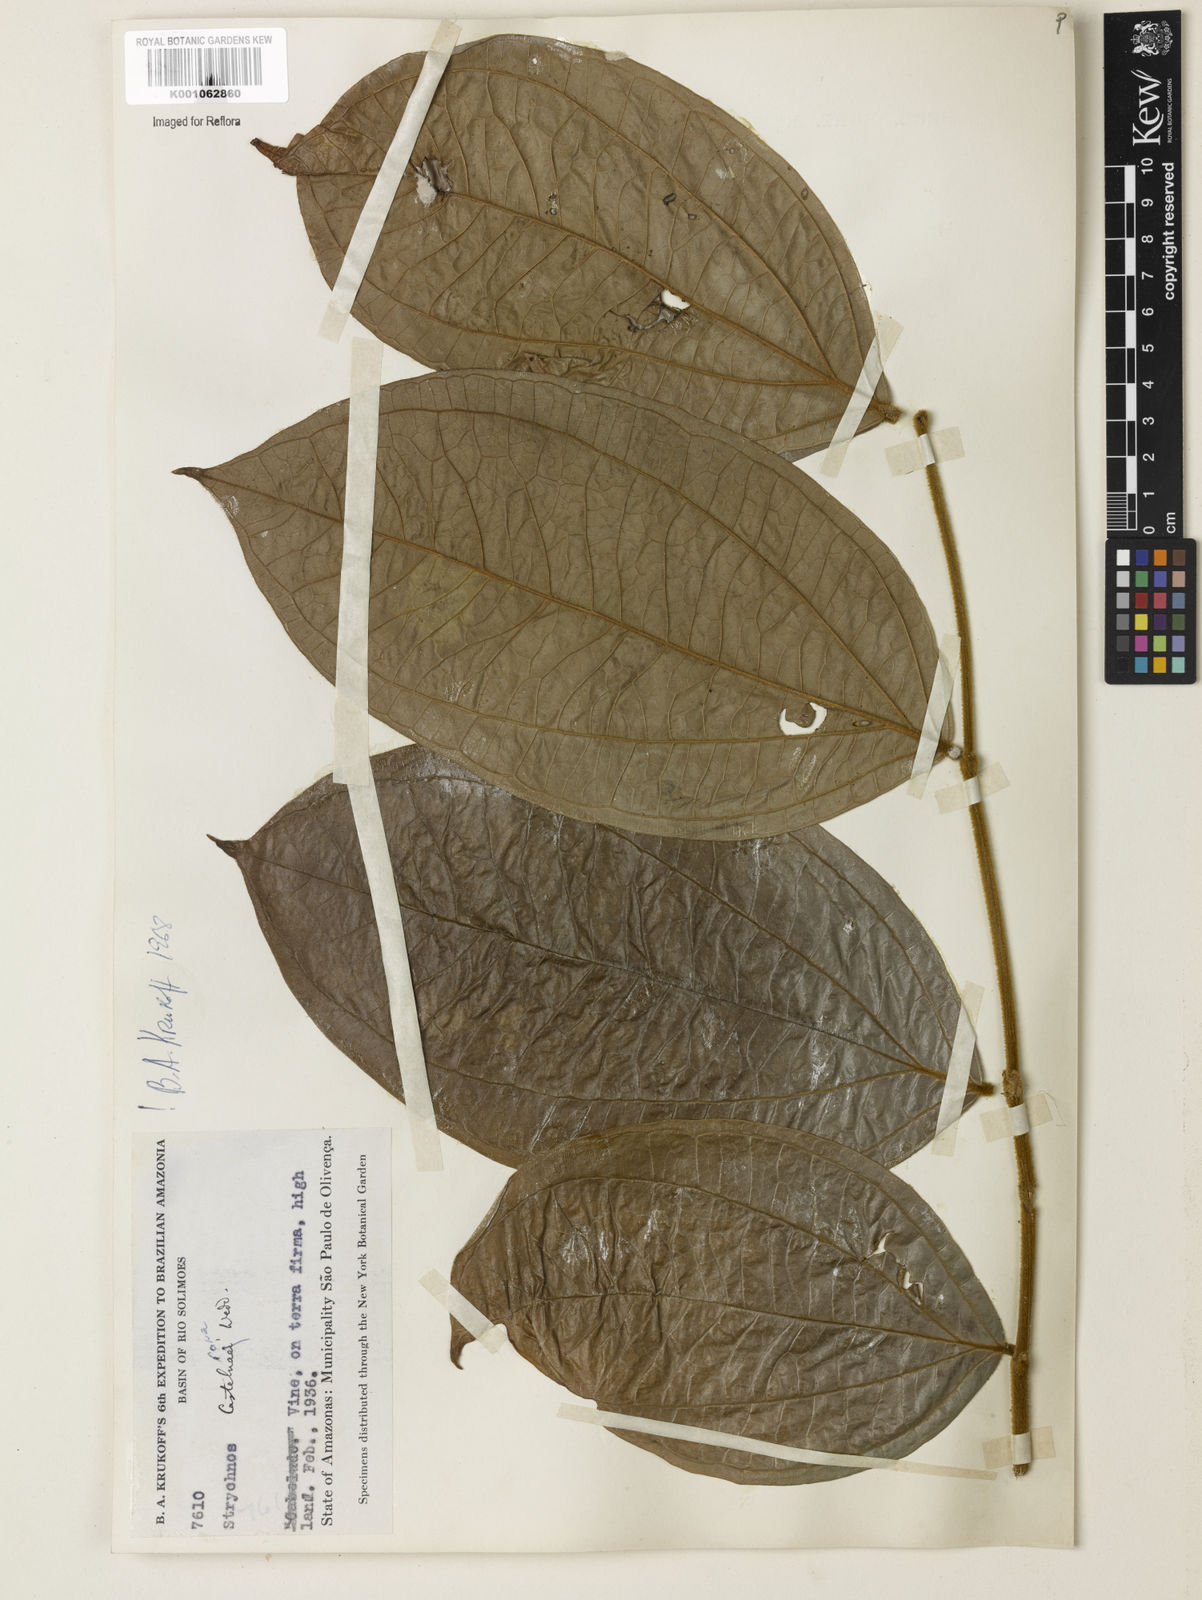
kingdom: Plantae
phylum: Tracheophyta
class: Magnoliopsida
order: Gentianales
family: Loganiaceae
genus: Strychnos
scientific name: Strychnos
